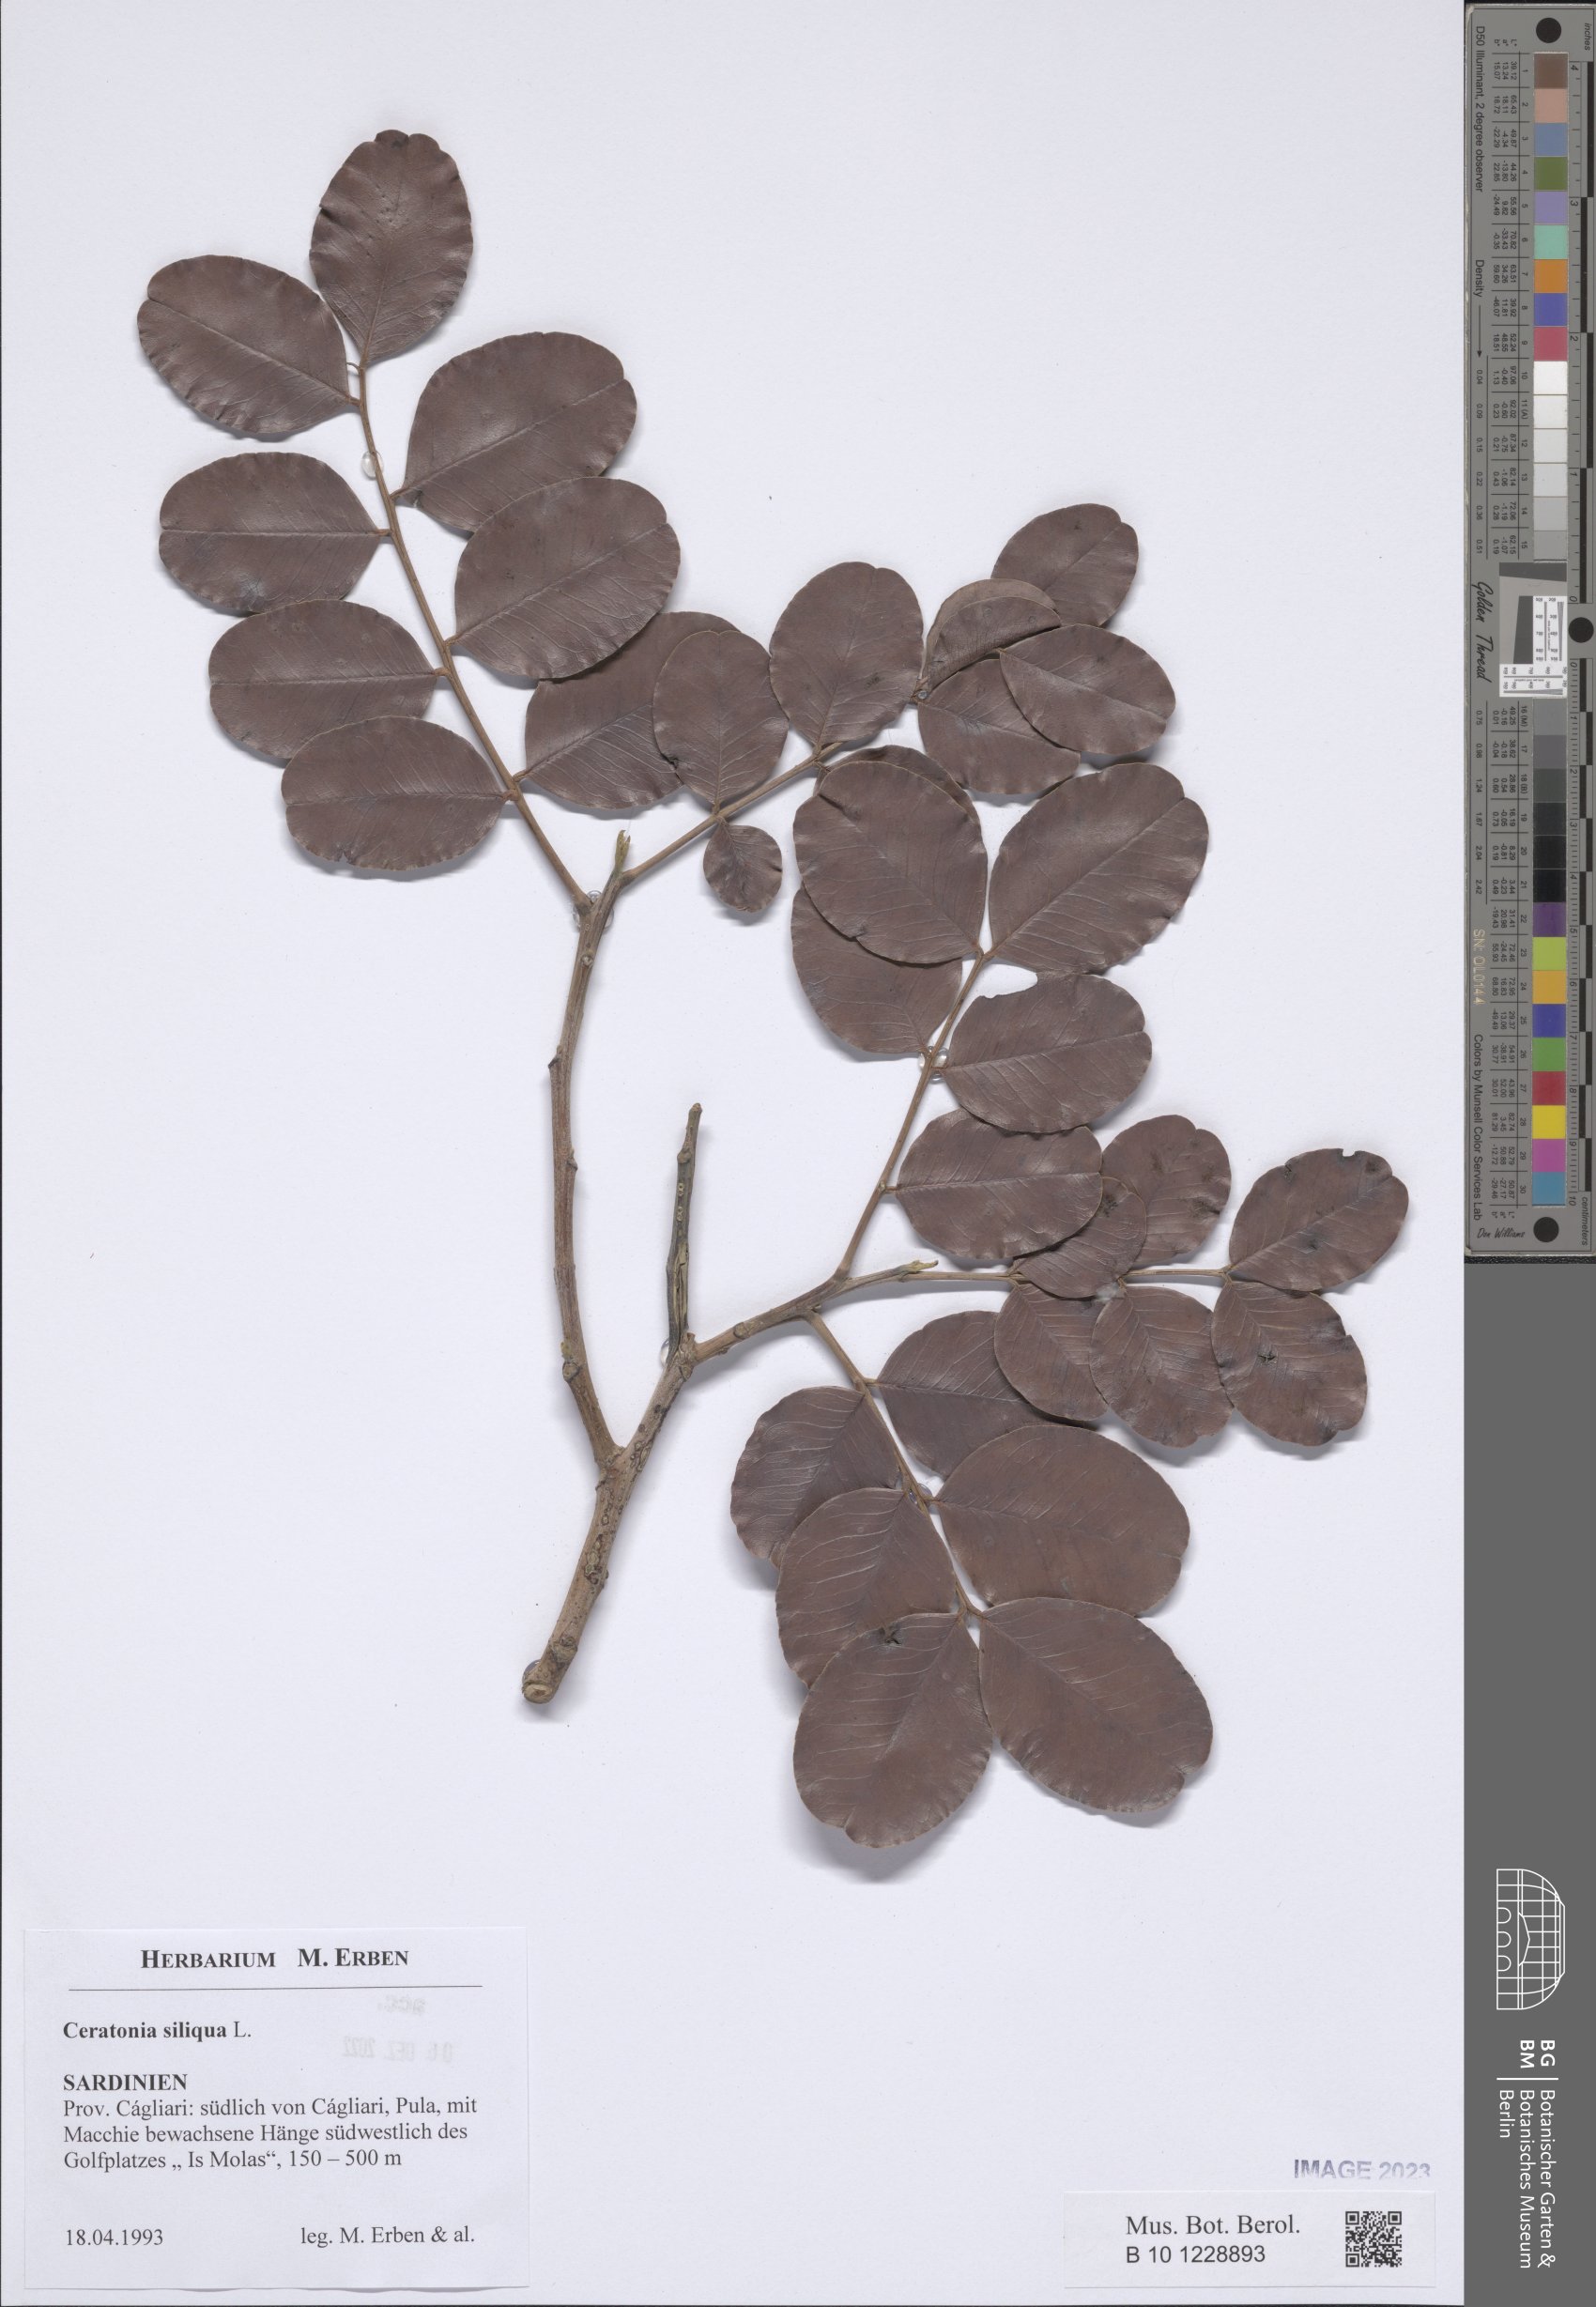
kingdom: Plantae
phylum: Tracheophyta
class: Magnoliopsida
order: Fabales
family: Fabaceae
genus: Ceratonia
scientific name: Ceratonia siliqua
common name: Carob
